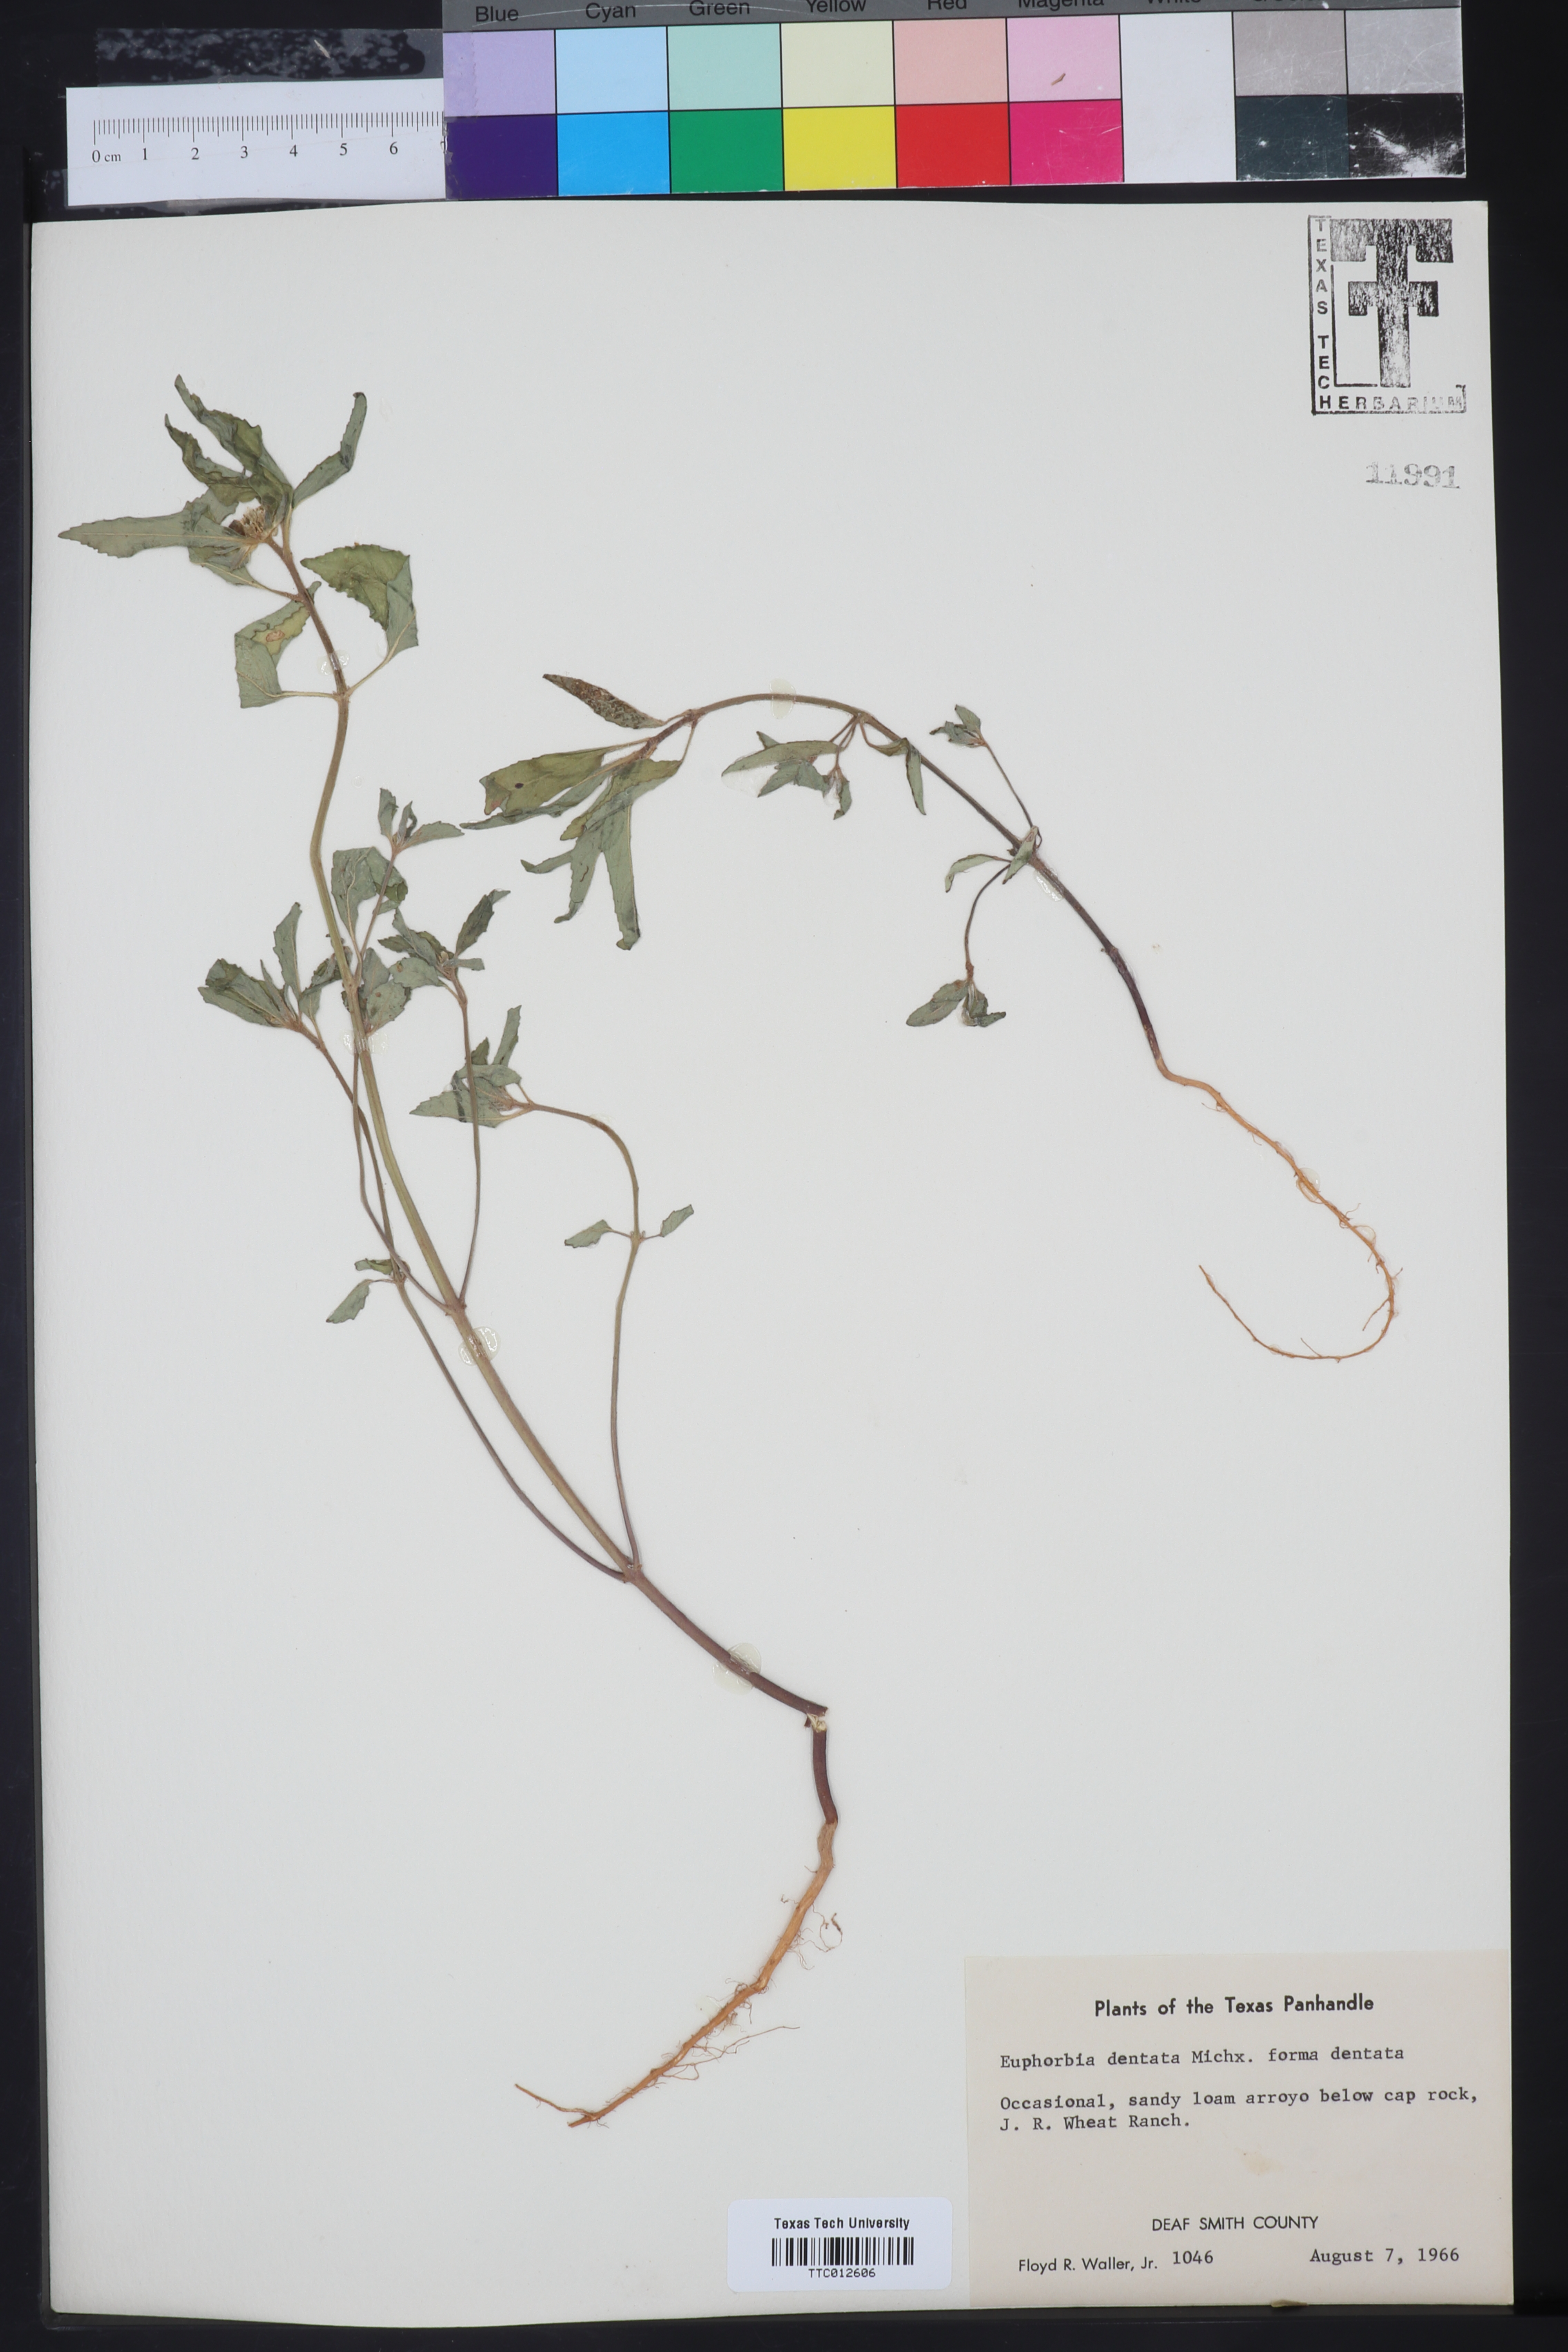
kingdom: Plantae
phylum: Tracheophyta
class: Magnoliopsida
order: Malpighiales
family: Euphorbiaceae
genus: Euphorbia
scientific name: Euphorbia dentata
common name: Dentate spurge
